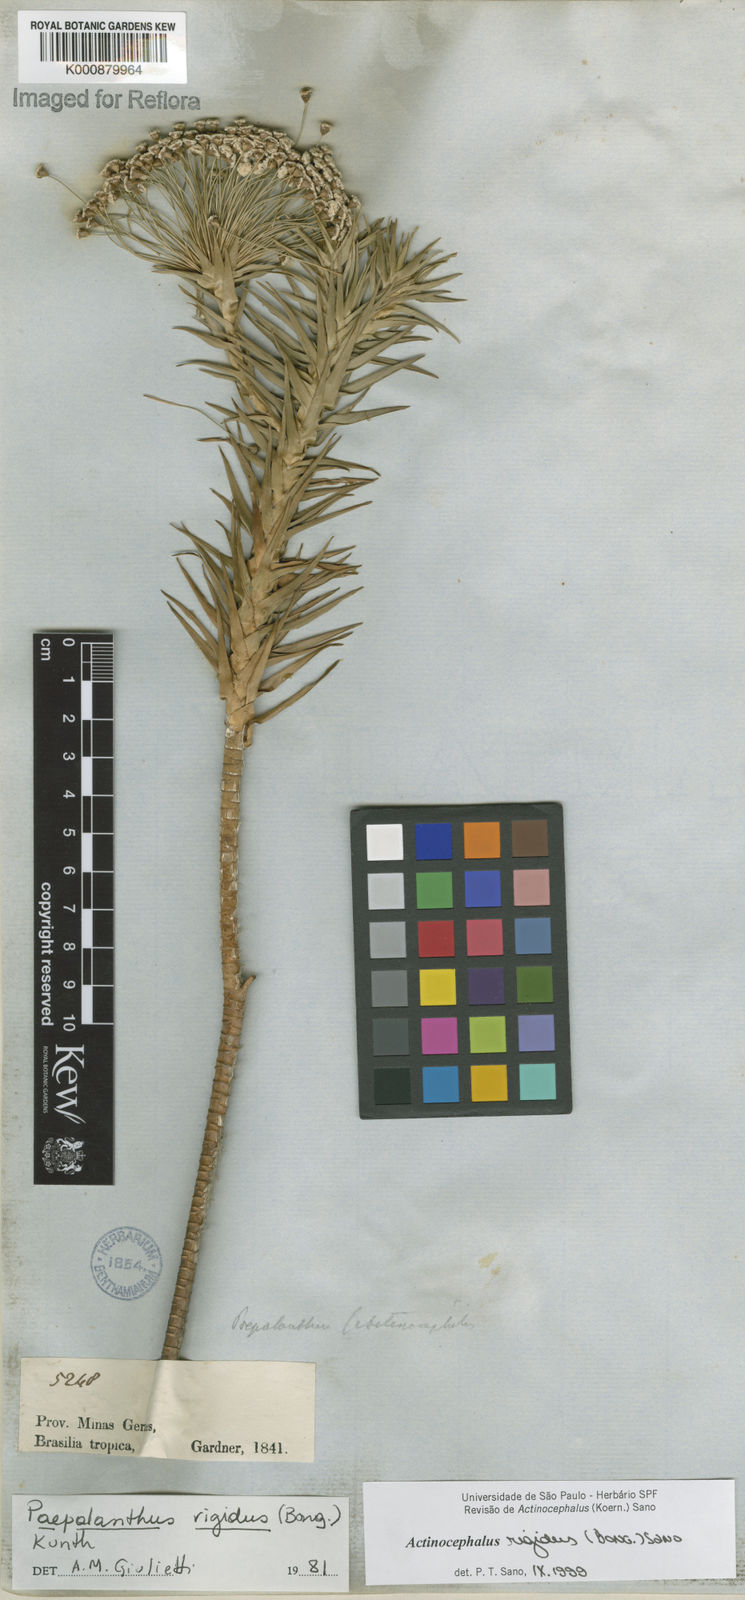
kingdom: Plantae
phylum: Tracheophyta
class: Liliopsida
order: Poales
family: Eriocaulaceae
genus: Paepalanthus
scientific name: Paepalanthus rigidus
